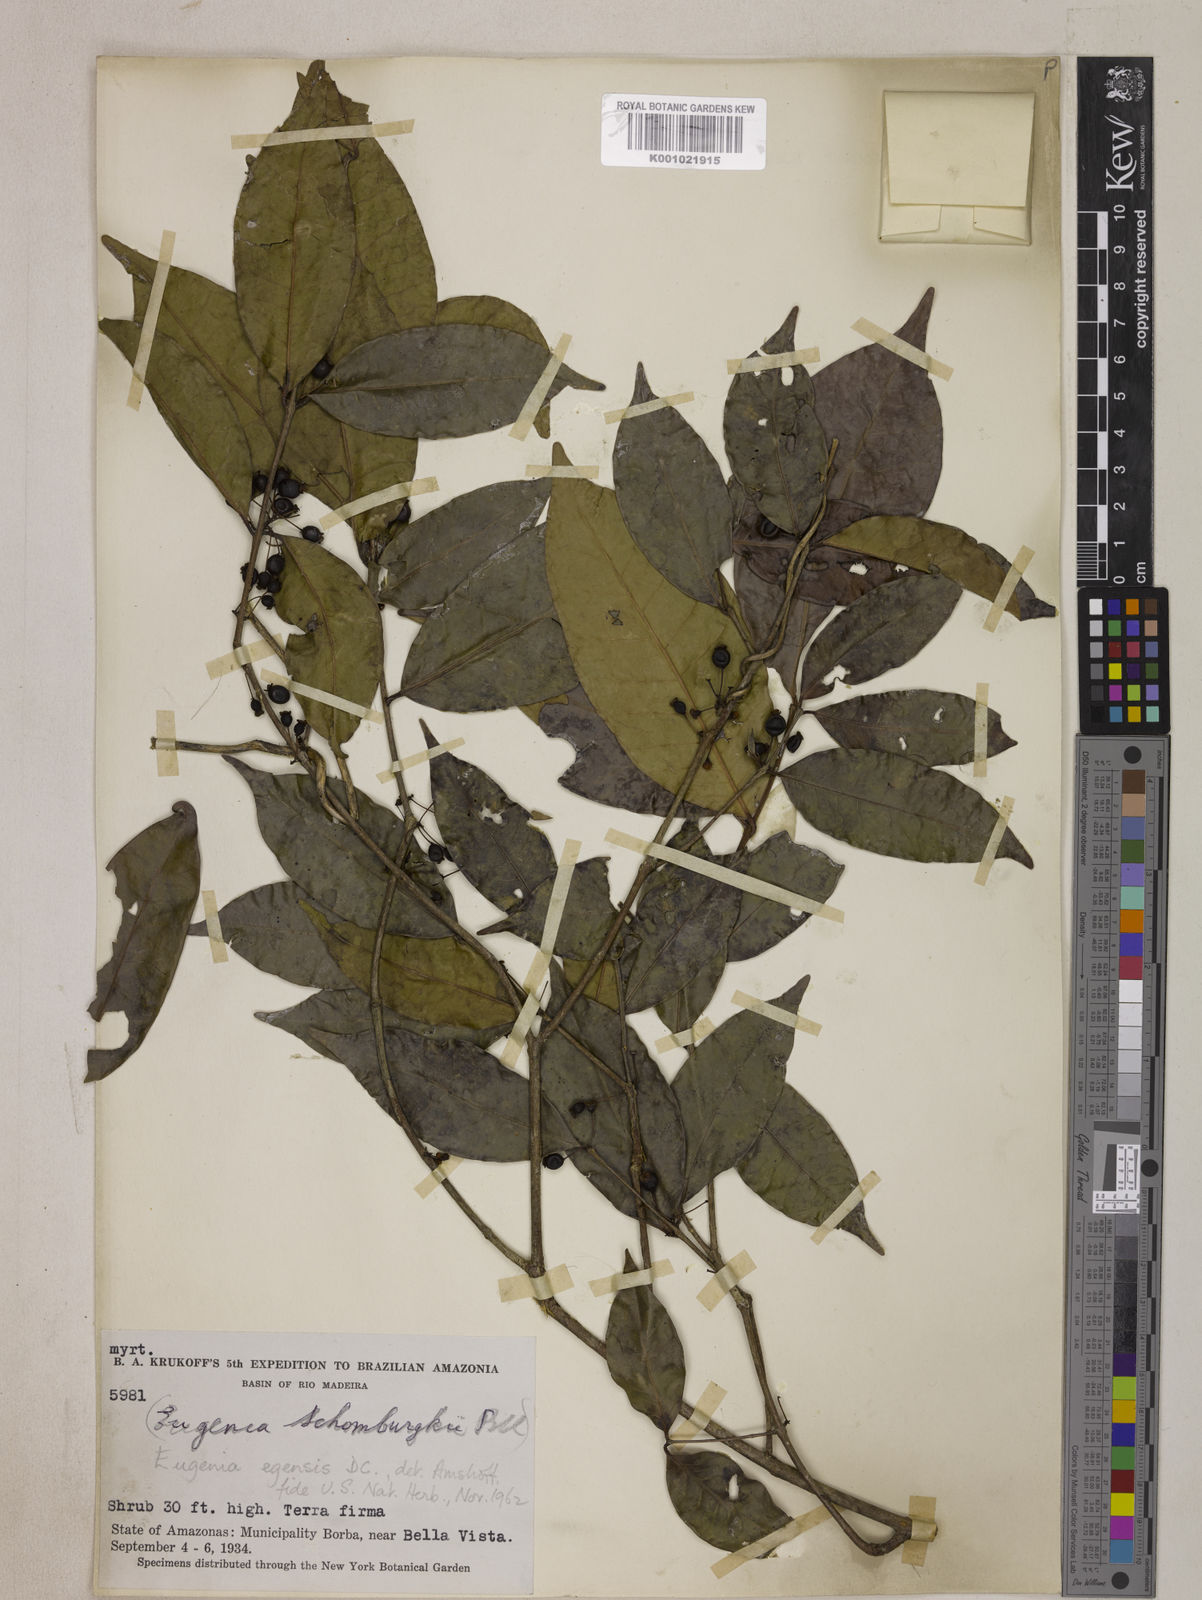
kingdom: Plantae
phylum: Tracheophyta
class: Magnoliopsida
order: Myrtales
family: Myrtaceae
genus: Eugenia
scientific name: Eugenia egensis
